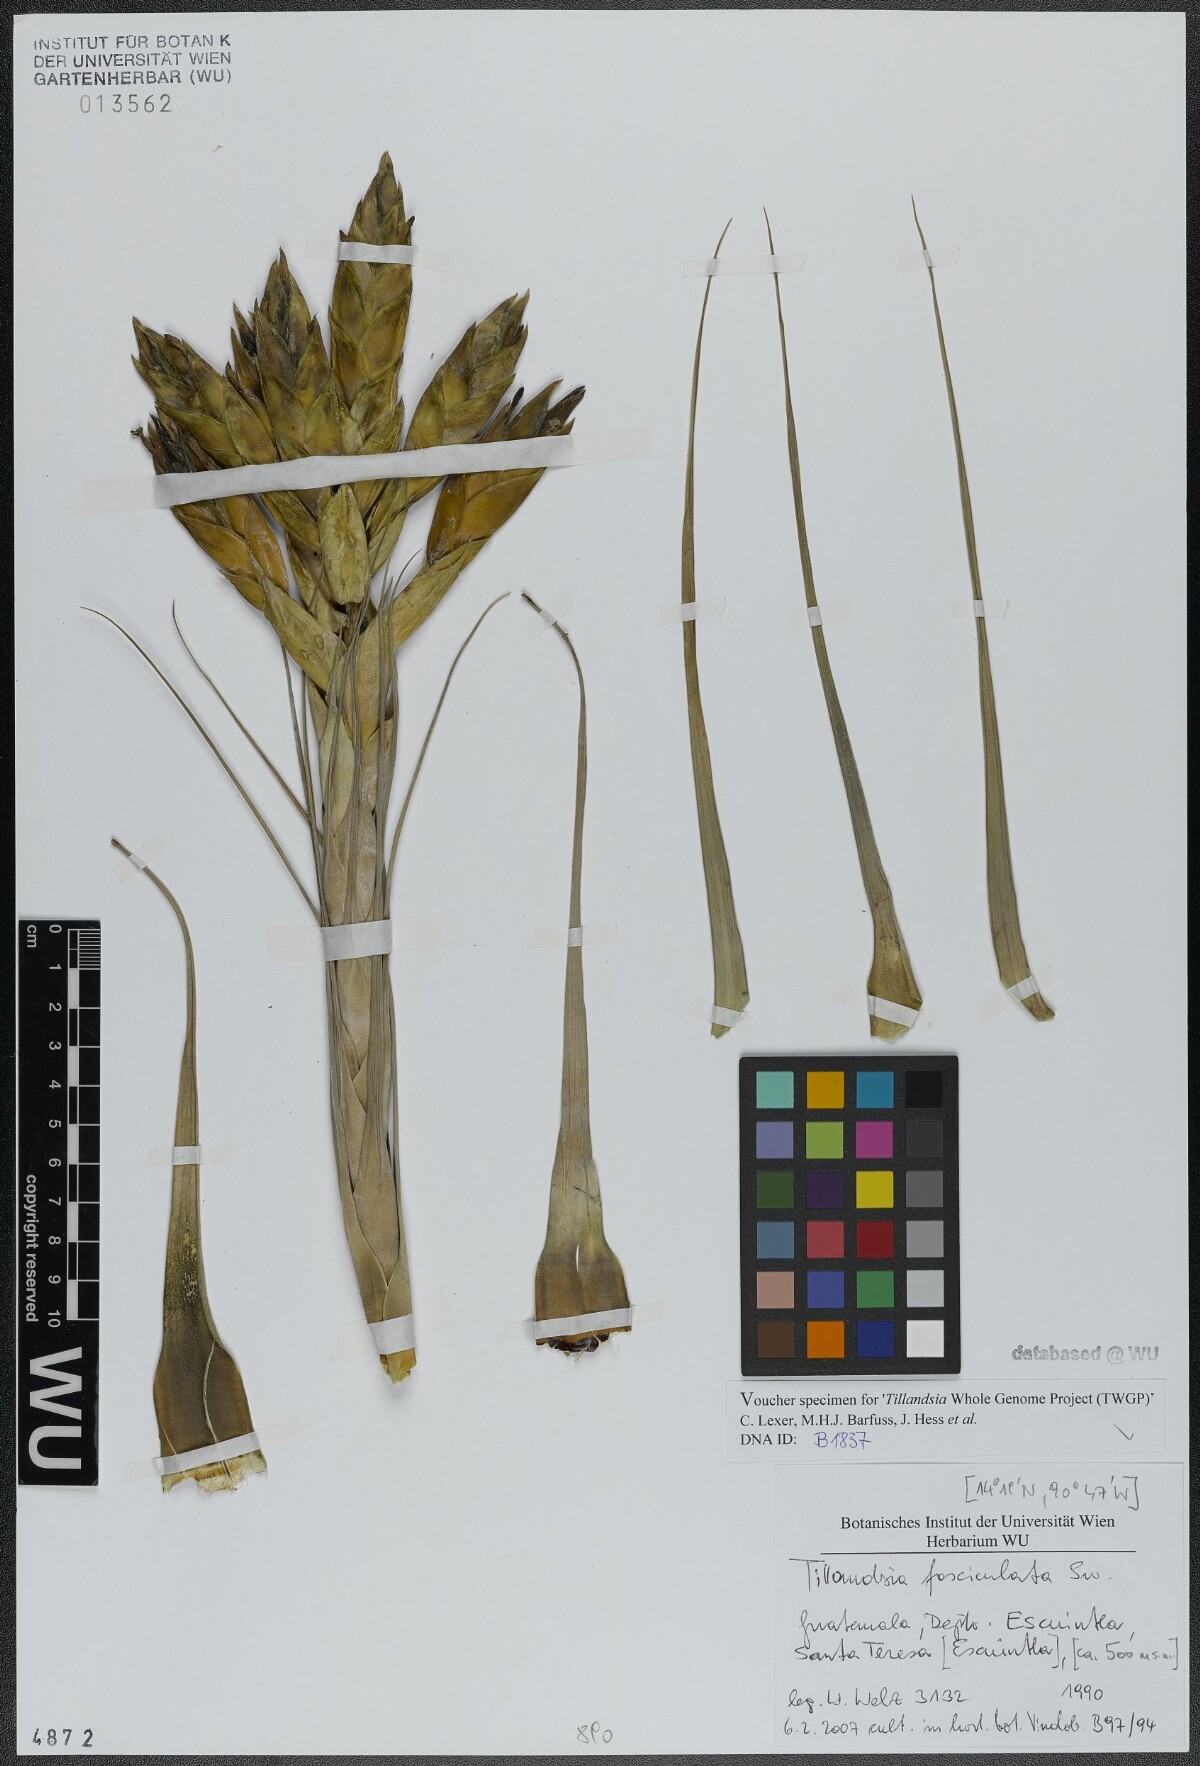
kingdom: Plantae
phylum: Tracheophyta
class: Liliopsida
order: Poales
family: Bromeliaceae
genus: Tillandsia
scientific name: Tillandsia fasciculata
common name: Giant airplant
